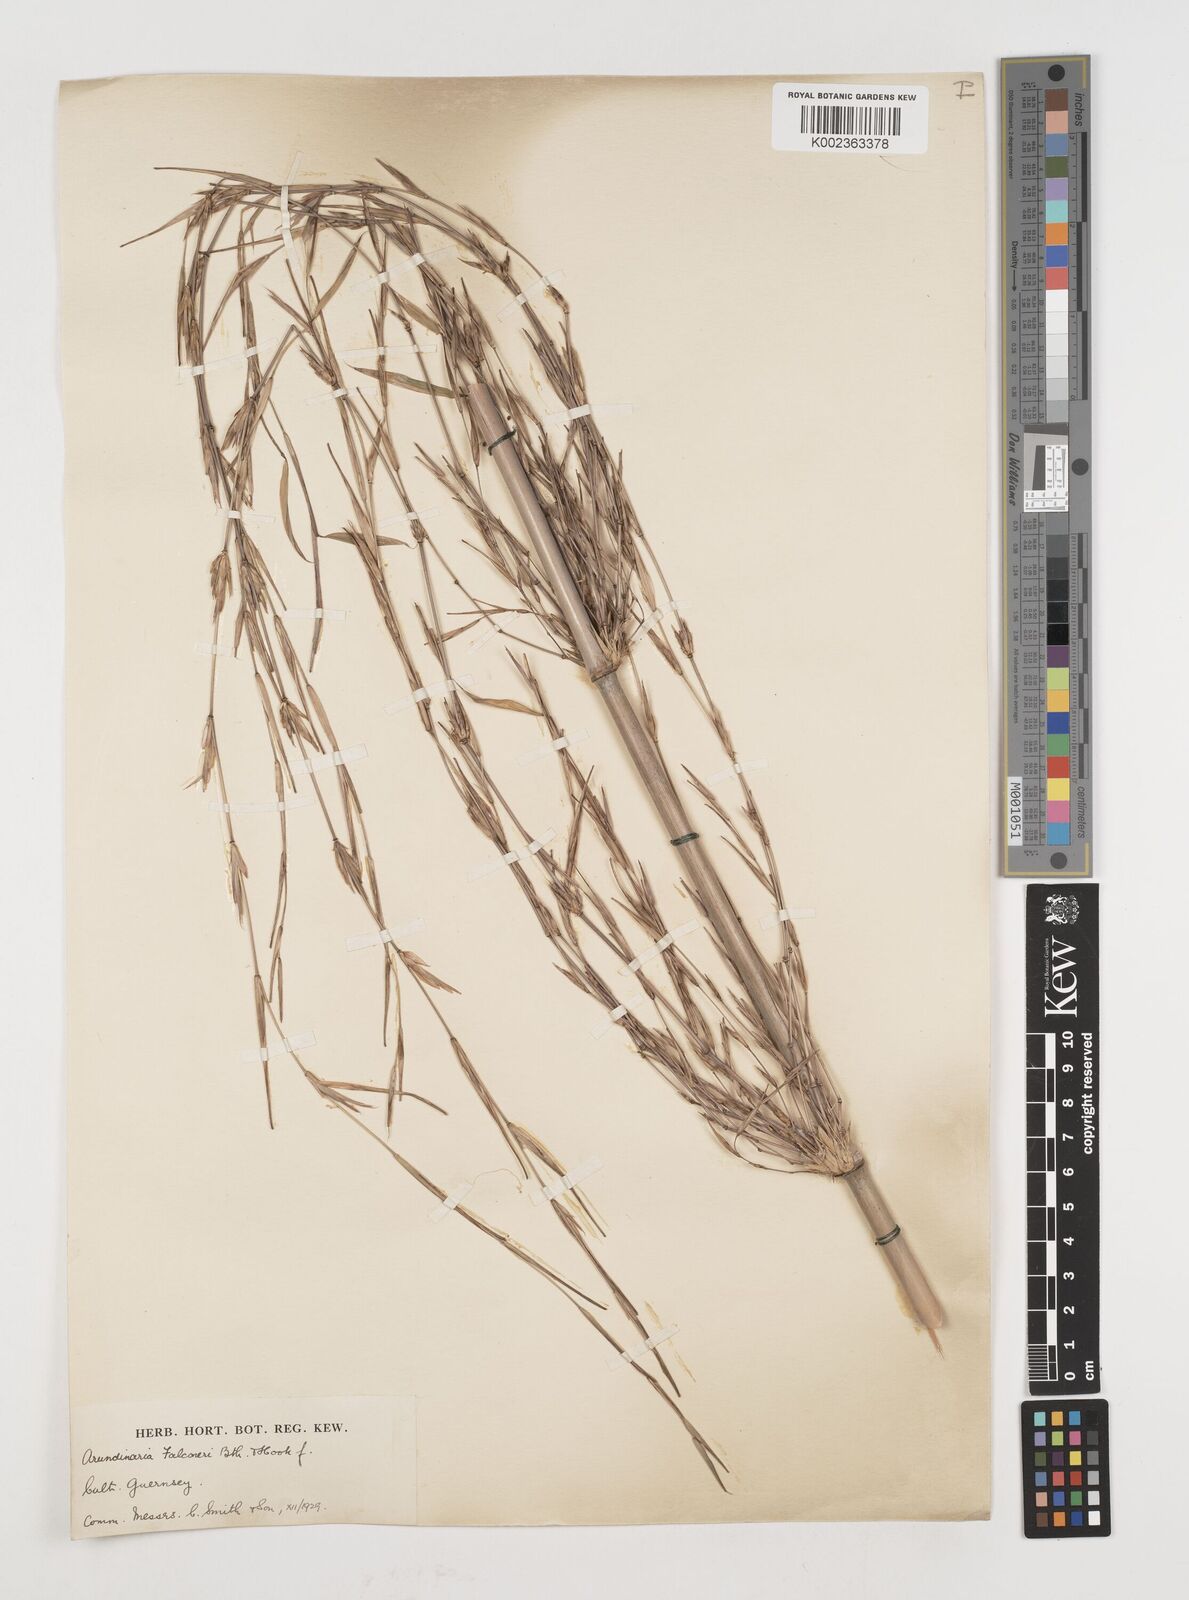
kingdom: Plantae
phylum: Tracheophyta
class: Liliopsida
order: Poales
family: Poaceae
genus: Himalayacalamus
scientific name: Himalayacalamus falconeri
